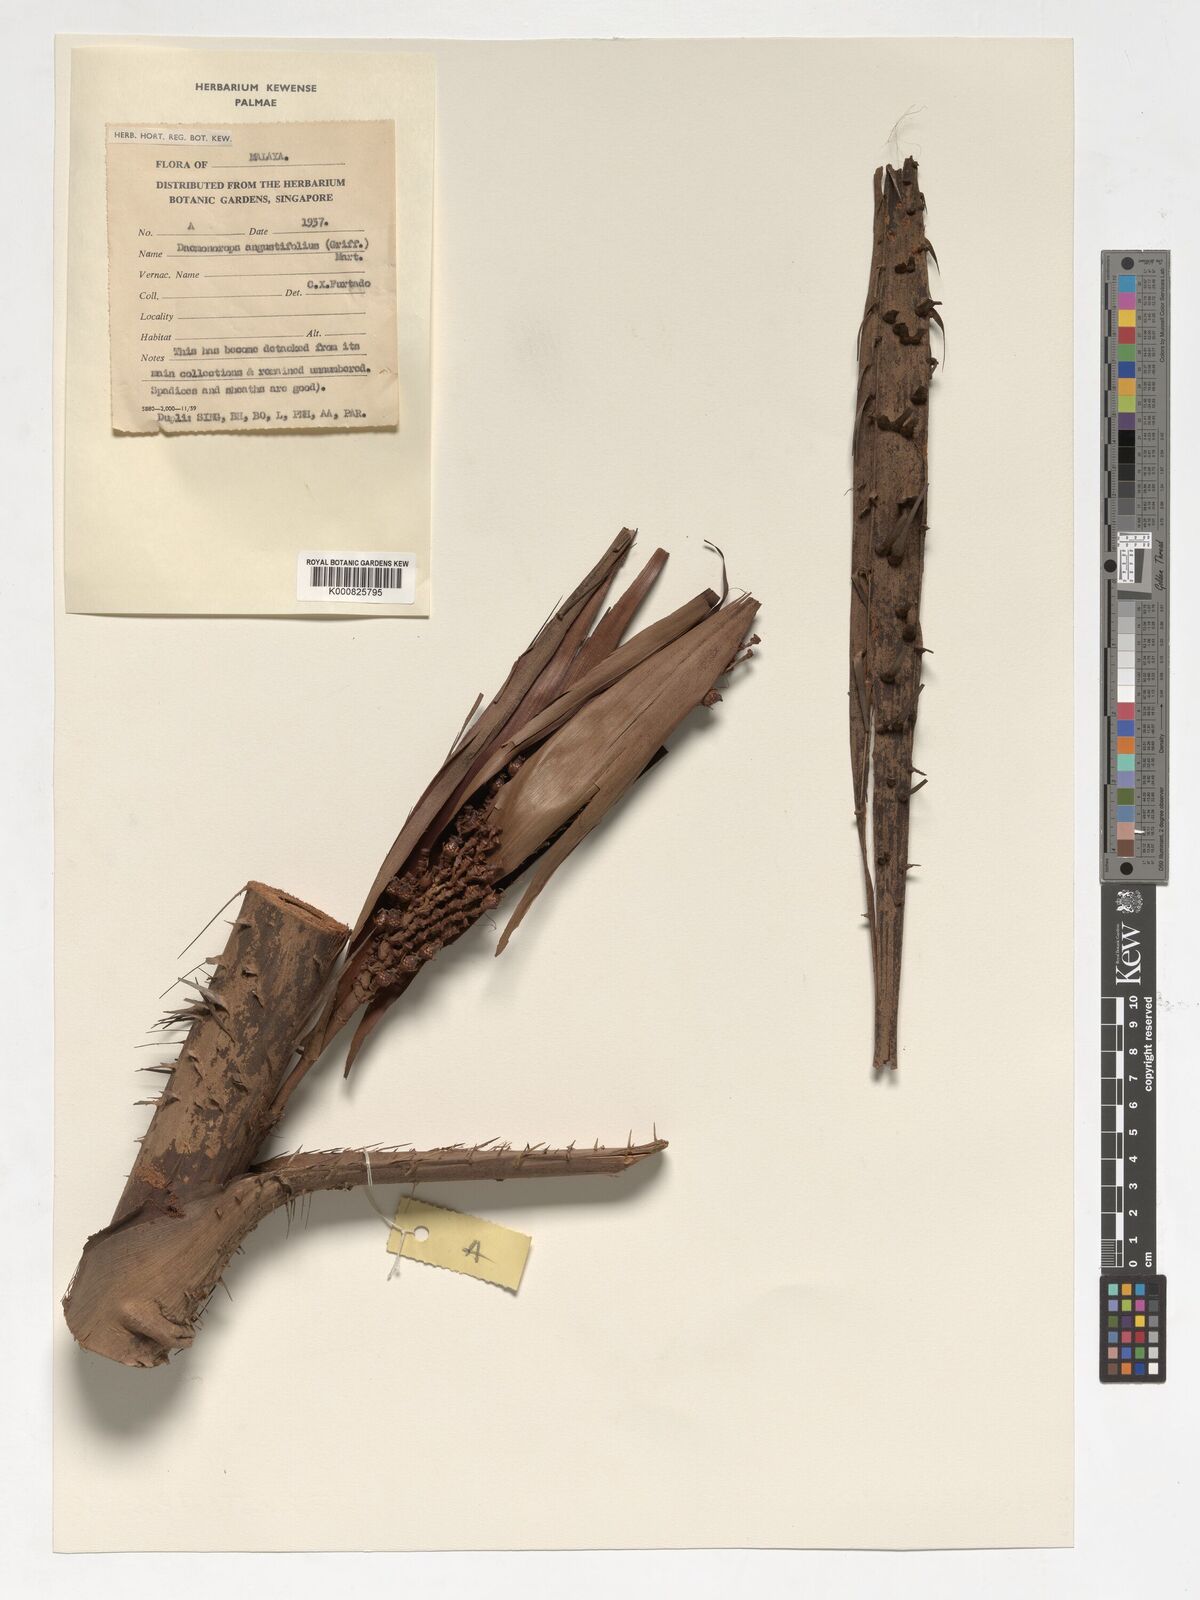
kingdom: Plantae
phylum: Tracheophyta
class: Liliopsida
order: Arecales
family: Arecaceae
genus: Calamus
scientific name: Calamus melanochaetes
